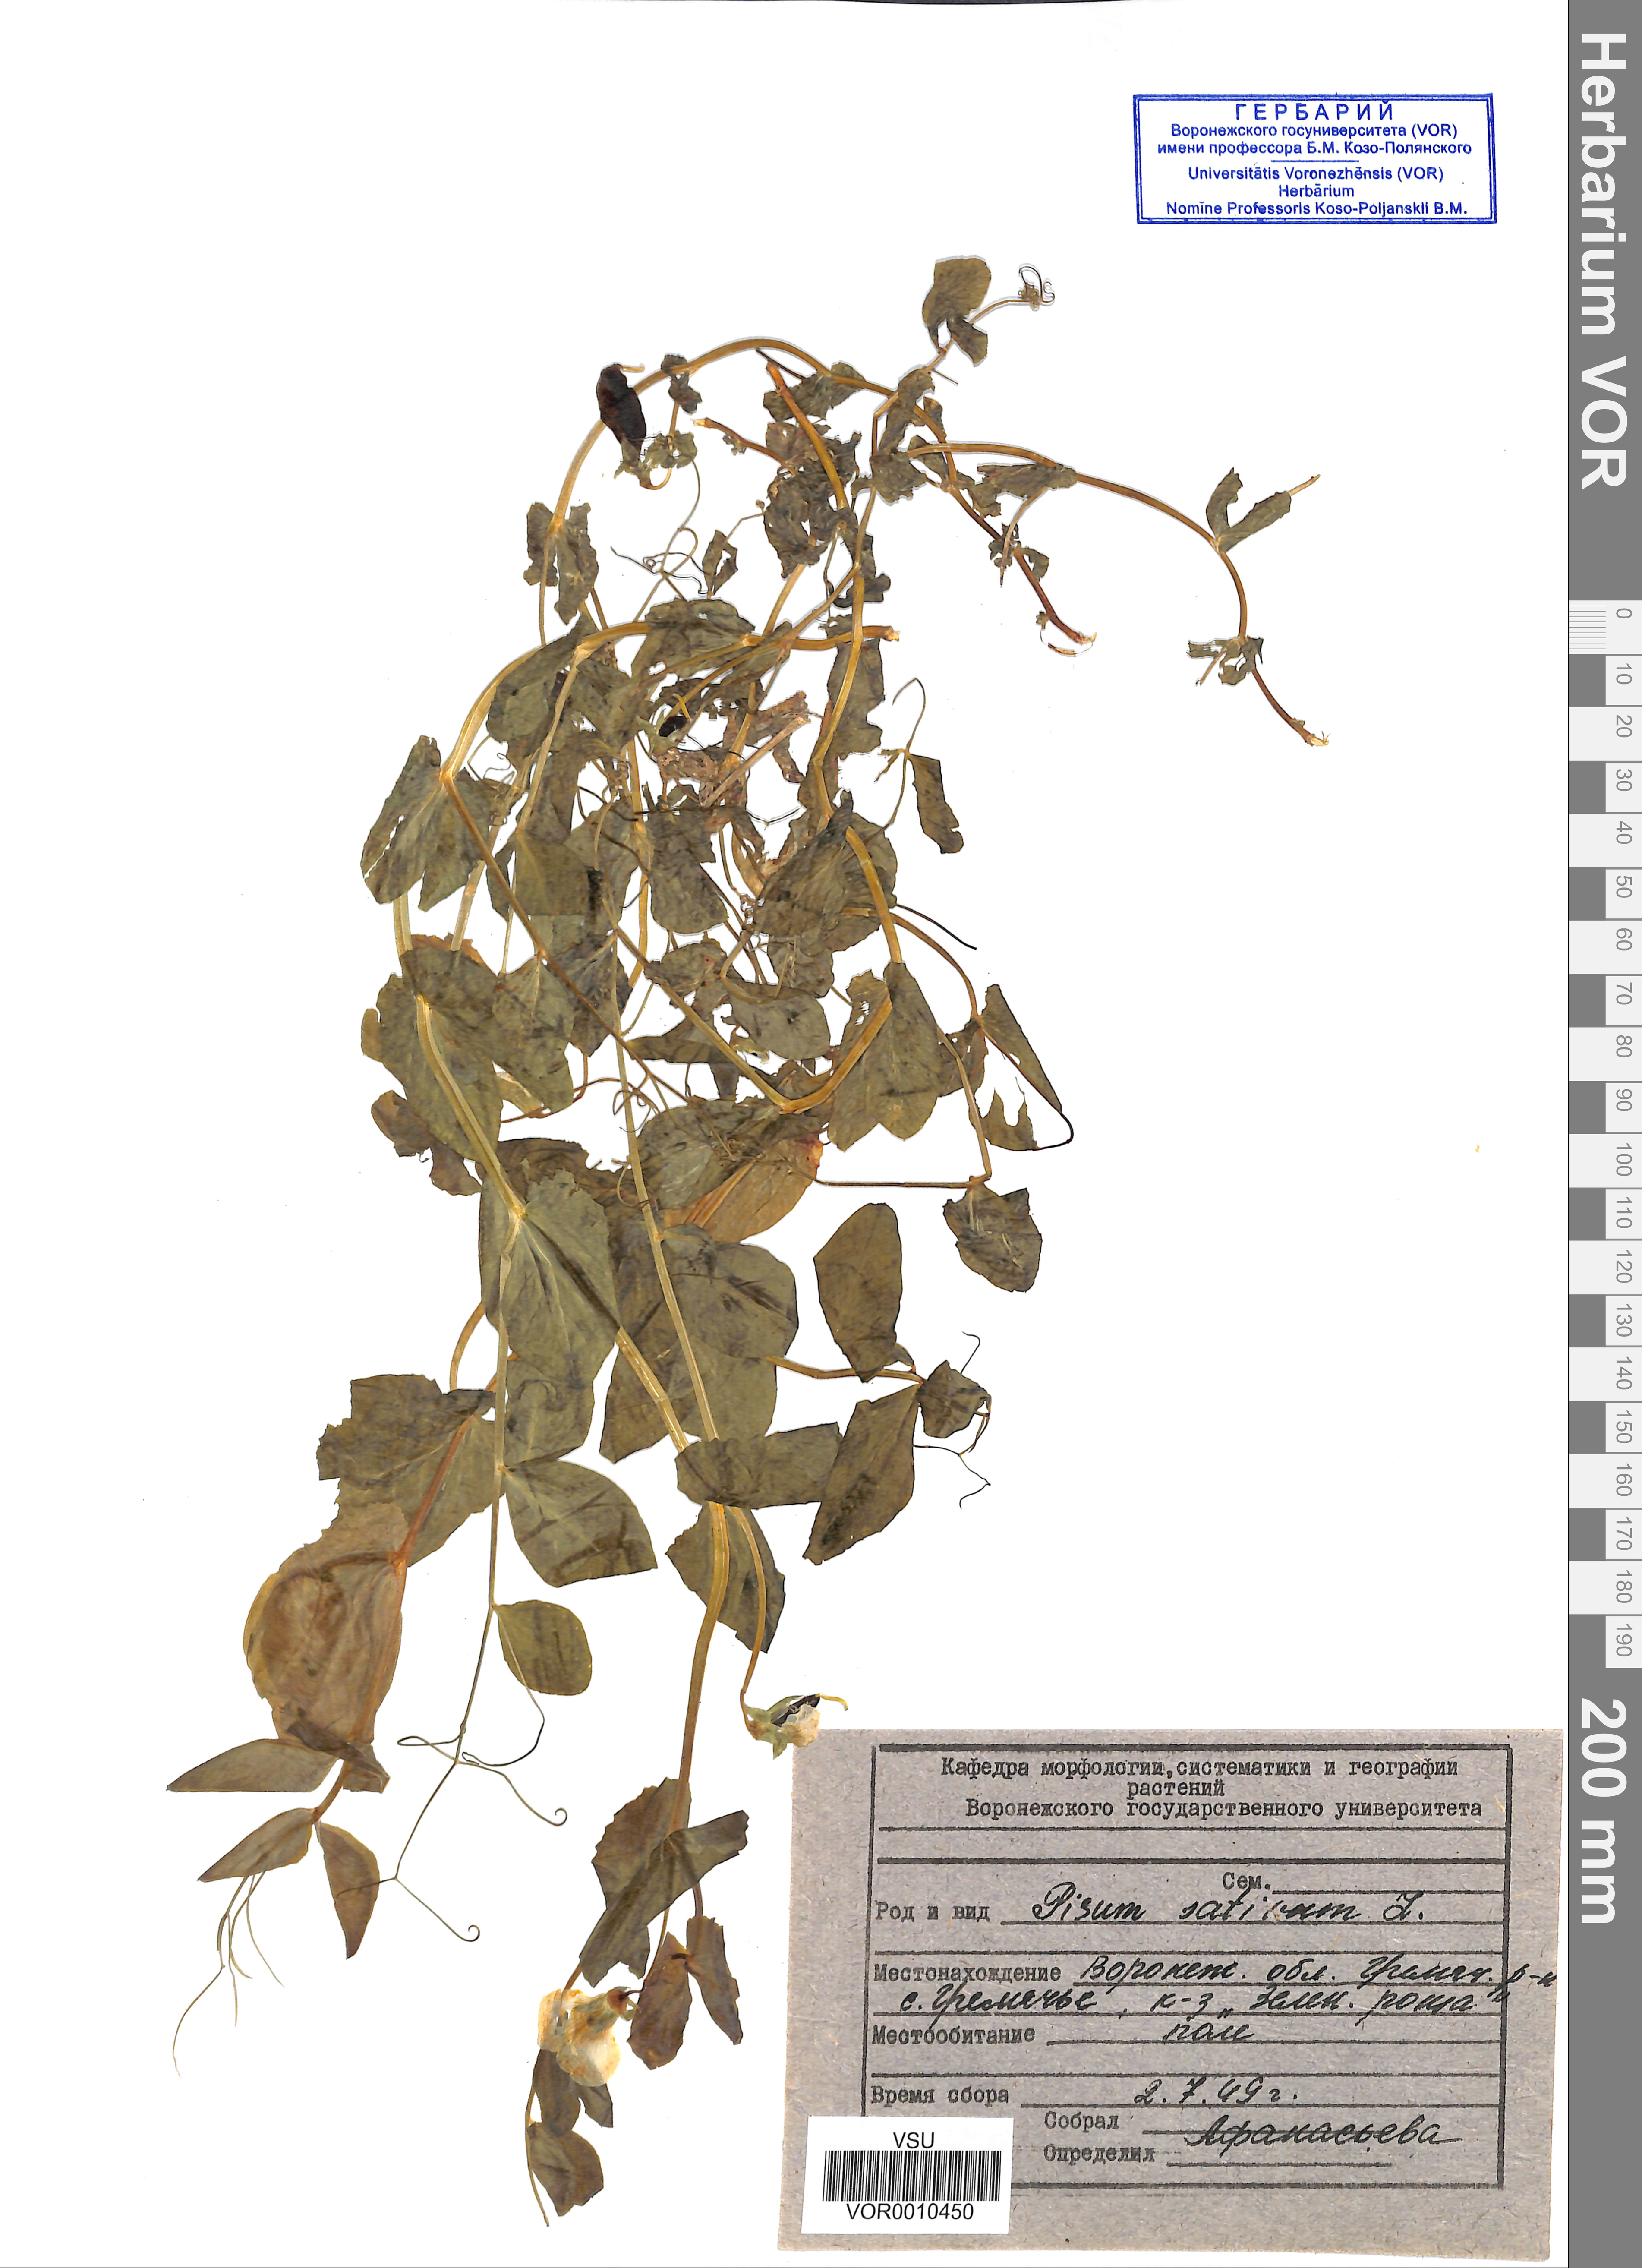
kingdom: Plantae
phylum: Tracheophyta
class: Magnoliopsida
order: Fabales
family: Fabaceae
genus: Lathyrus
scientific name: Lathyrus oleraceus
